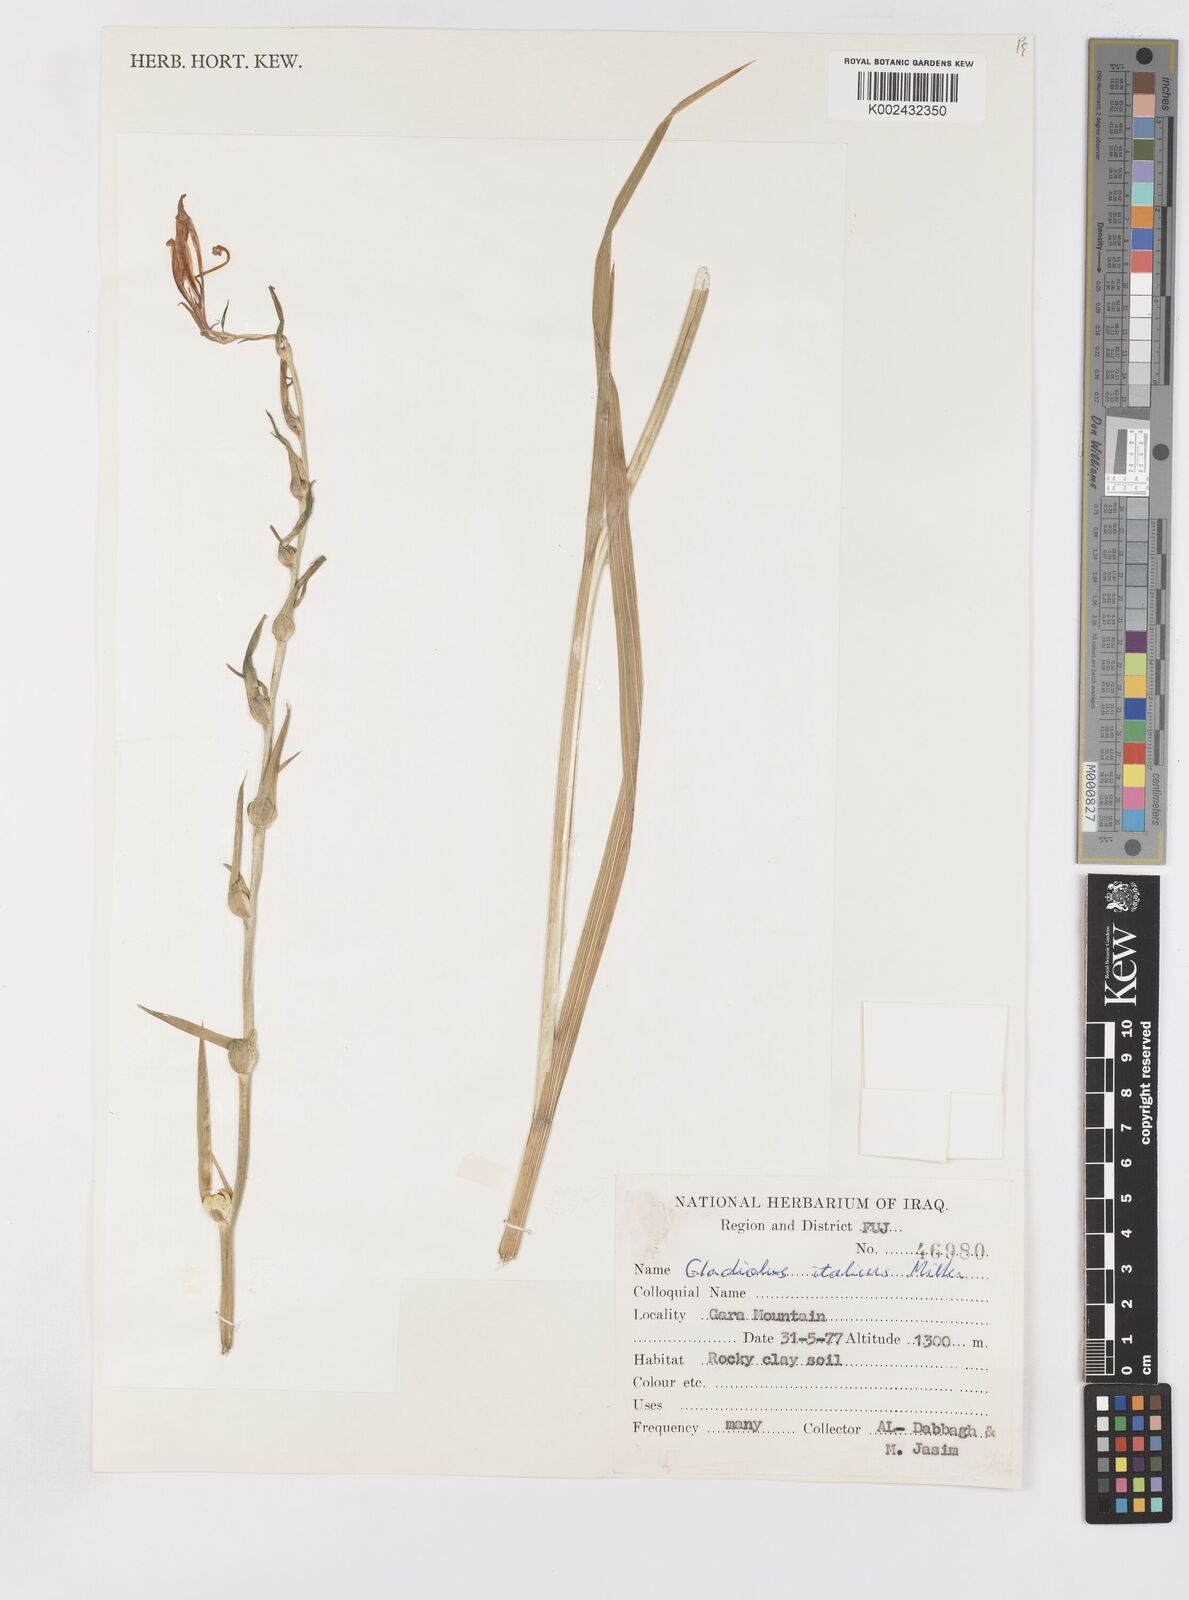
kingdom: Plantae
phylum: Tracheophyta
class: Liliopsida
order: Asparagales
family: Iridaceae
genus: Gladiolus
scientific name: Gladiolus italicus
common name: Field gladiolus
